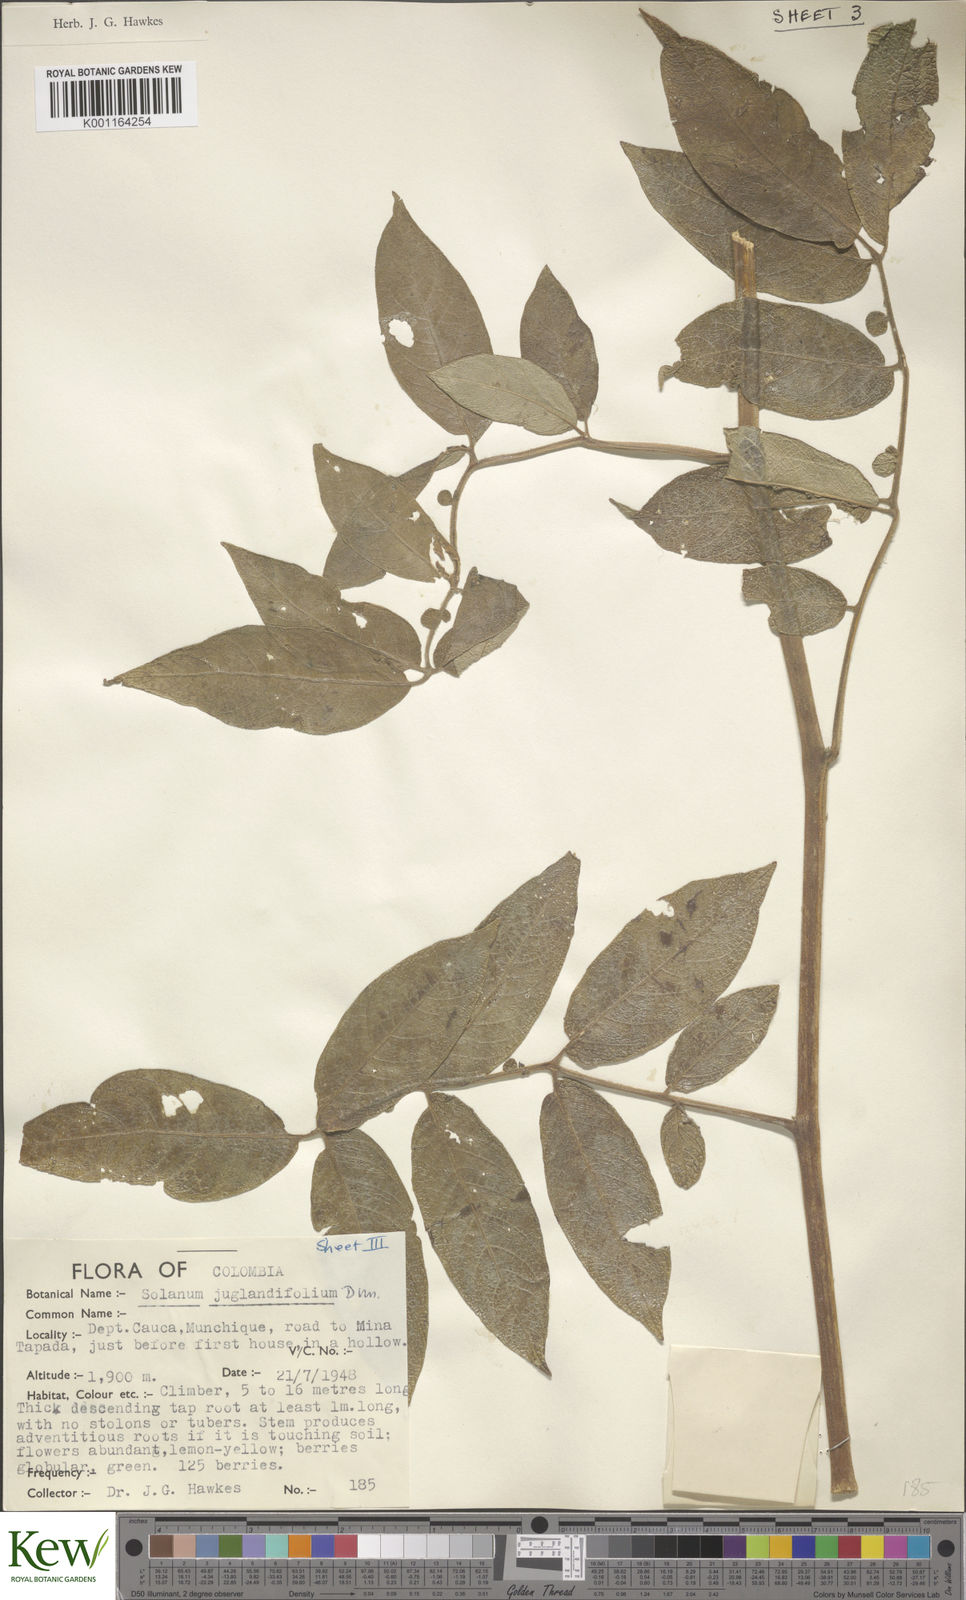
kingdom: Plantae
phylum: Tracheophyta
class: Magnoliopsida
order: Solanales
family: Solanaceae
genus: Solanum
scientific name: Solanum juglandifolium
